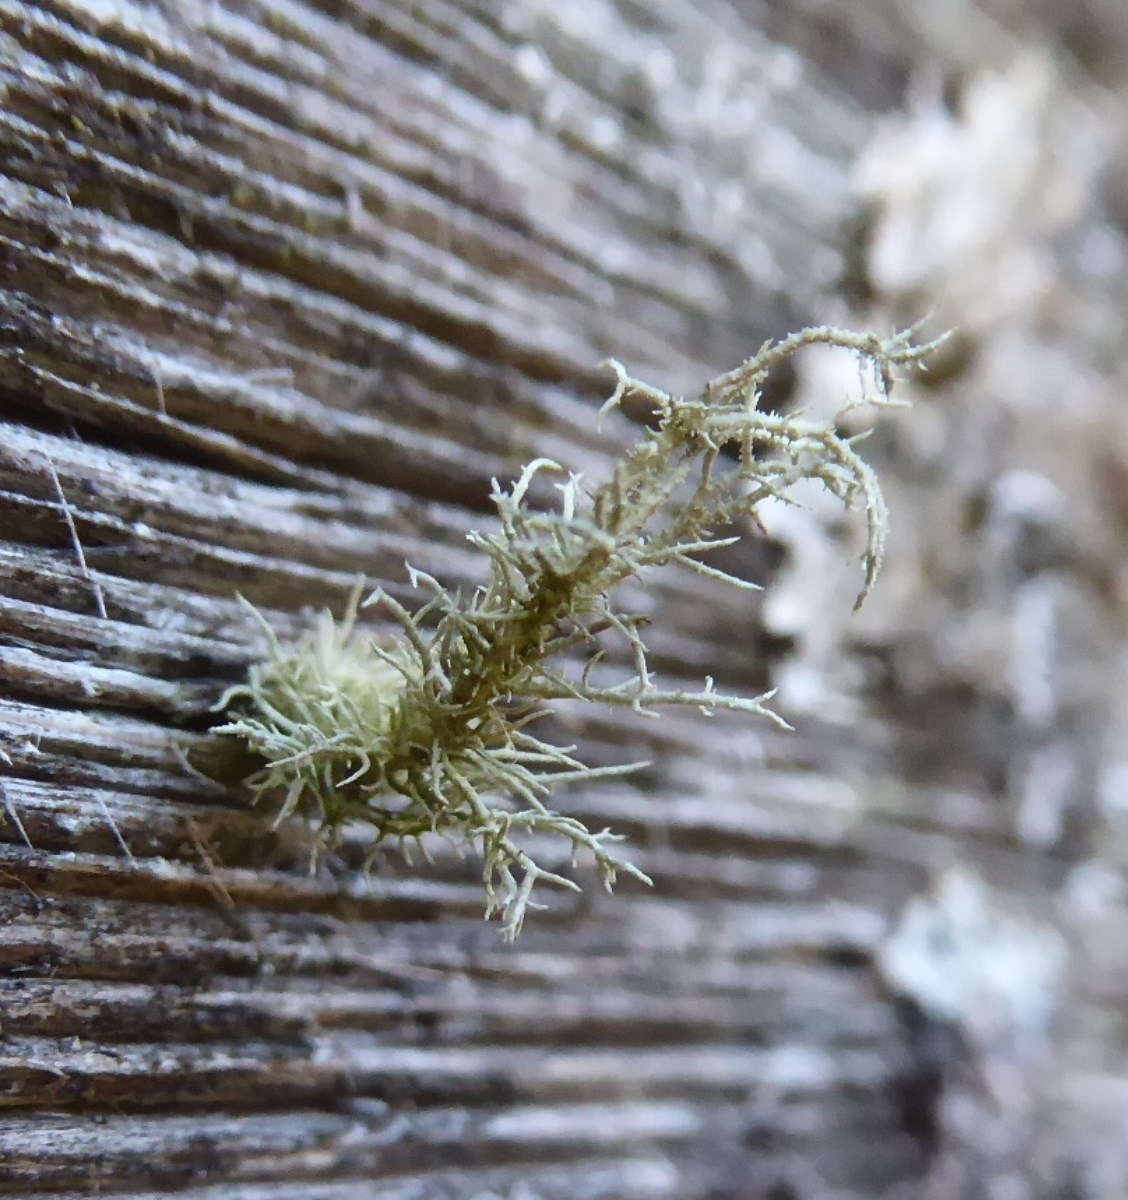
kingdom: Fungi
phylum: Ascomycota
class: Lecanoromycetes
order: Lecanorales
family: Parmeliaceae
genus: Usnea
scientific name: Usnea hirta
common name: liden skæglav
